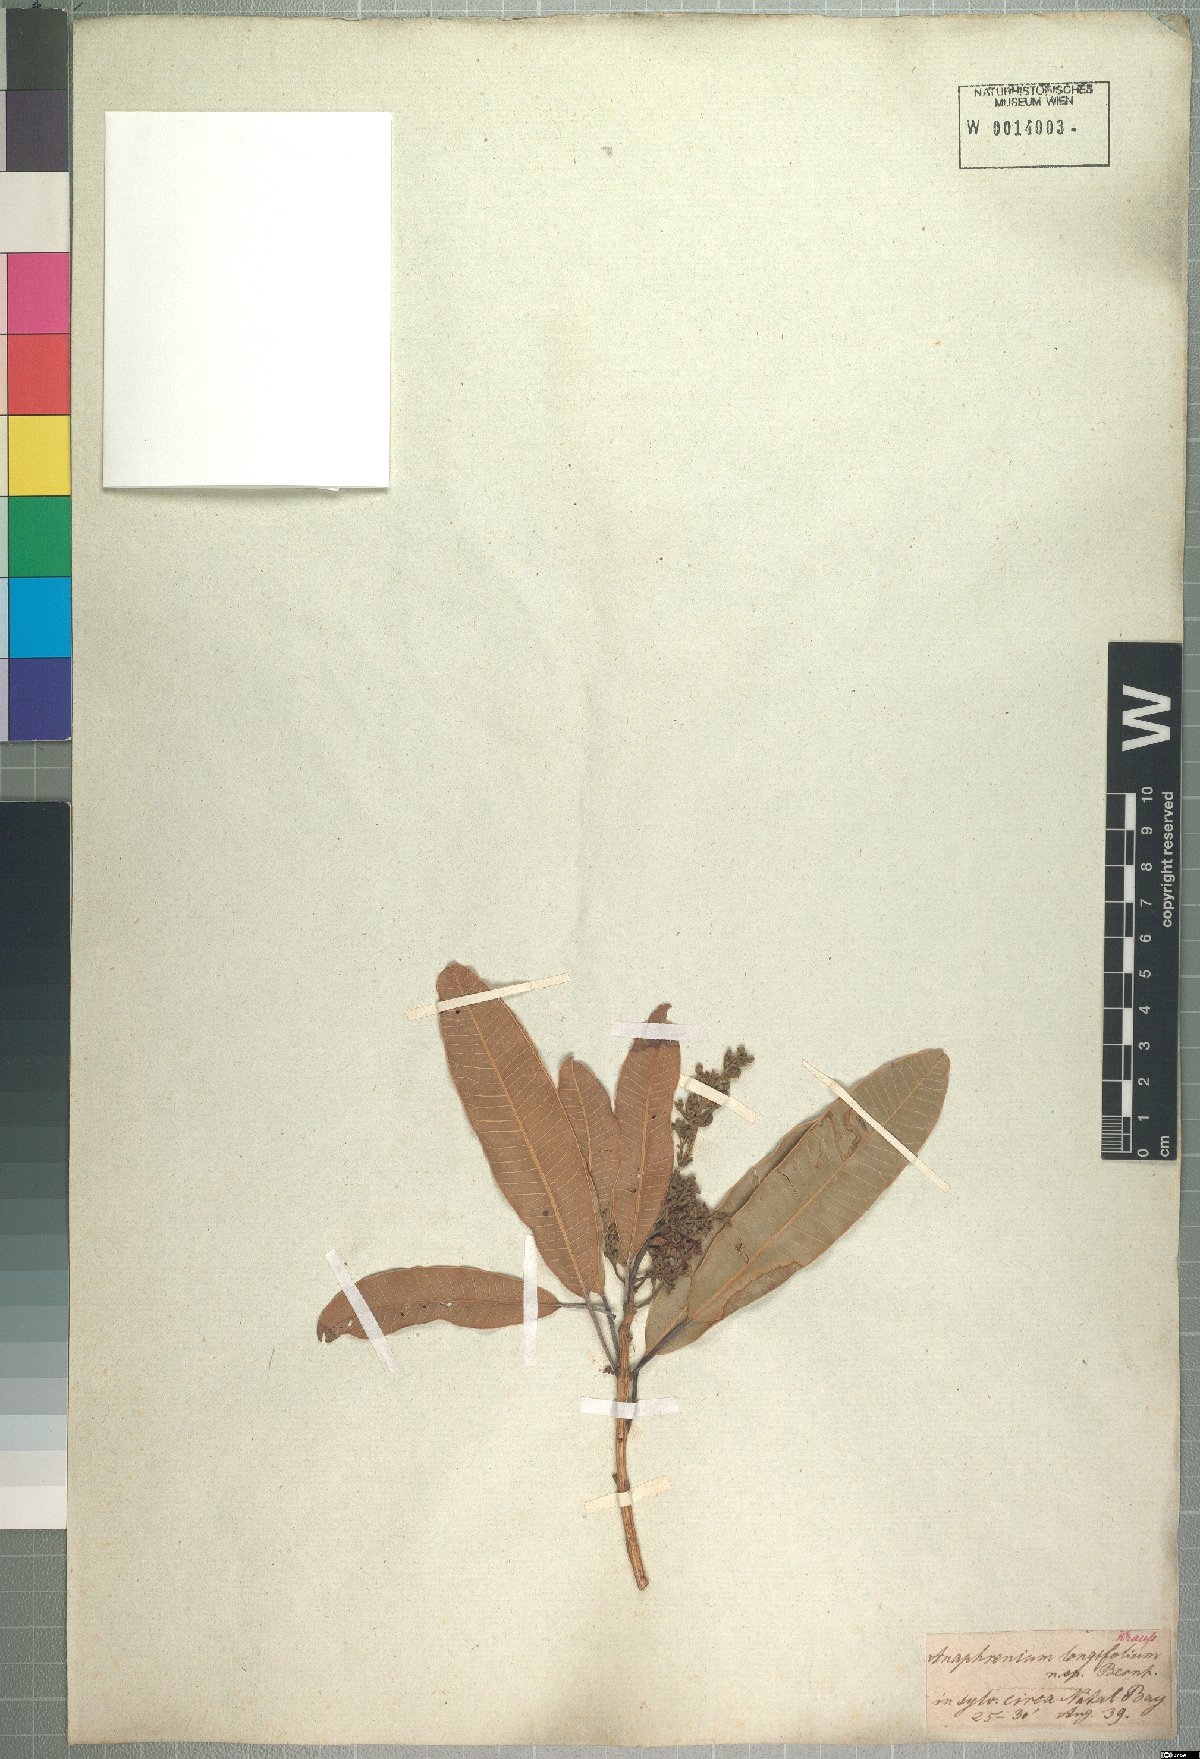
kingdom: Plantae
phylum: Tracheophyta
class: Magnoliopsida
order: Sapindales
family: Anacardiaceae
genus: Protorhus
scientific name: Protorhus longifolia
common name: Red-beech
